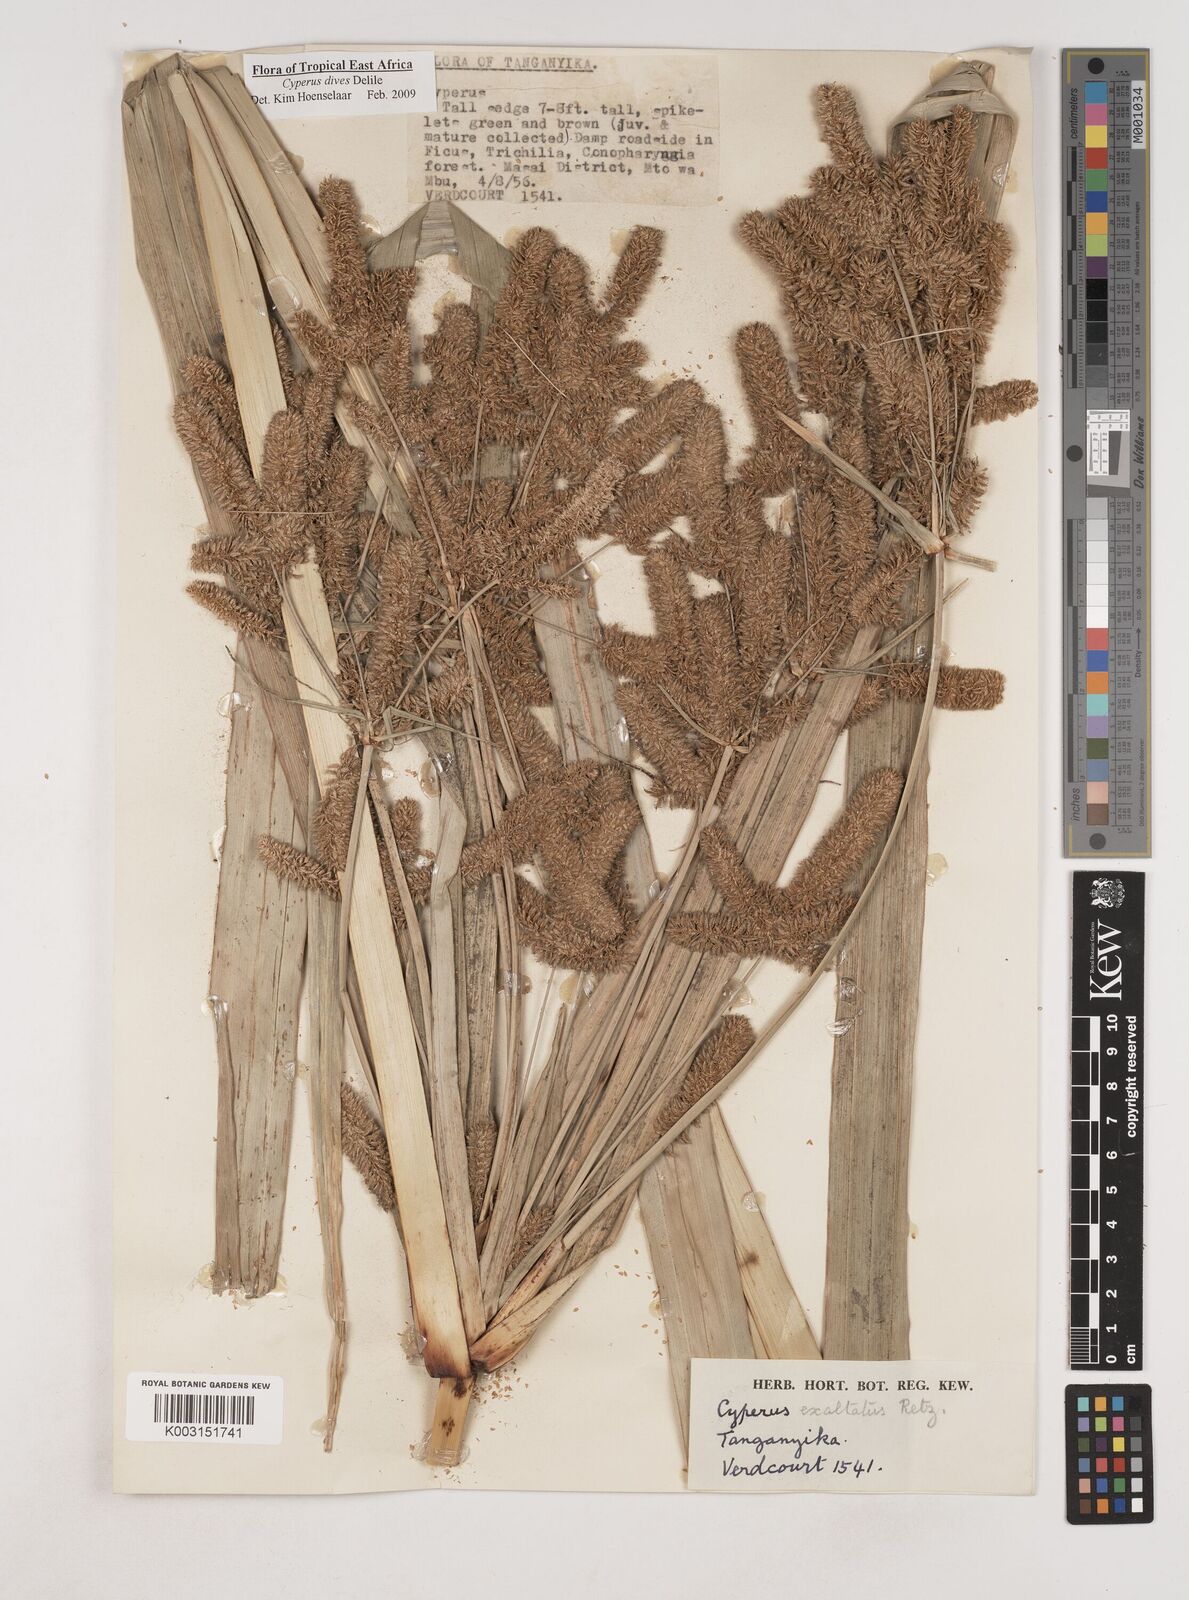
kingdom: Plantae
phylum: Tracheophyta
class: Liliopsida
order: Poales
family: Cyperaceae
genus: Cyperus
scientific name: Cyperus dives
